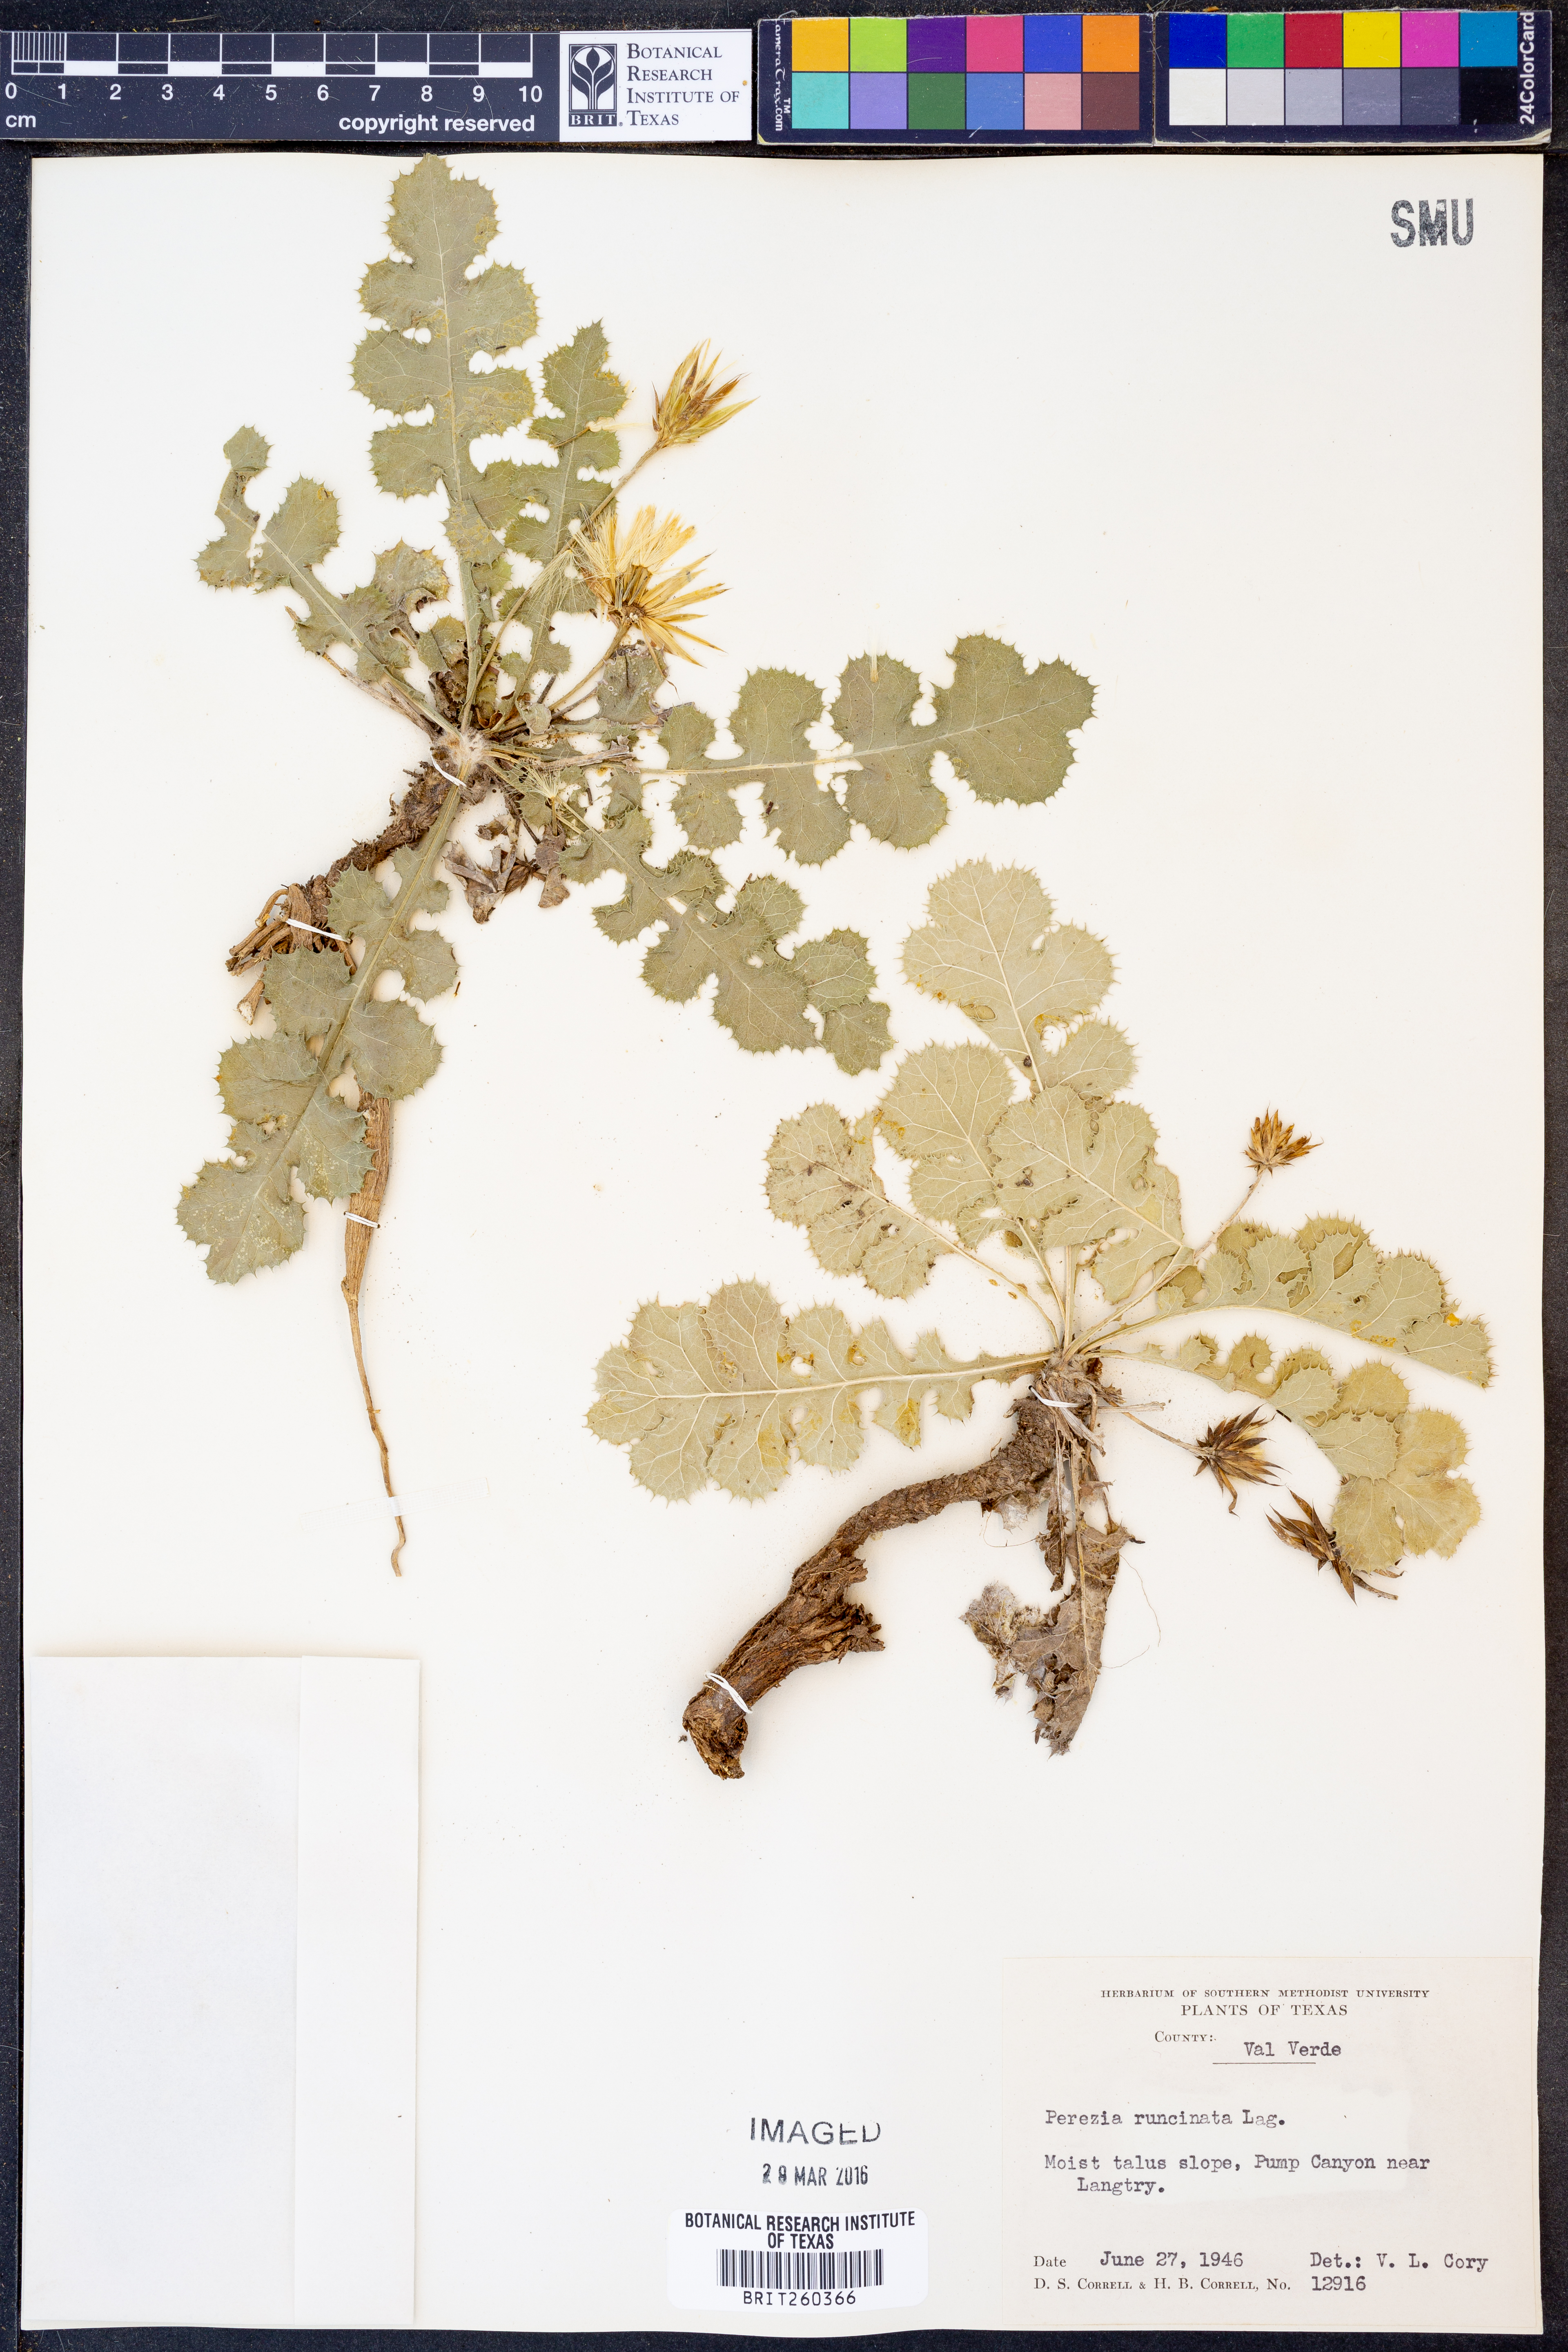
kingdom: Plantae
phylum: Tracheophyta
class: Magnoliopsida
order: Asterales
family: Asteraceae
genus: Acourtia
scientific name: Acourtia runcinata
